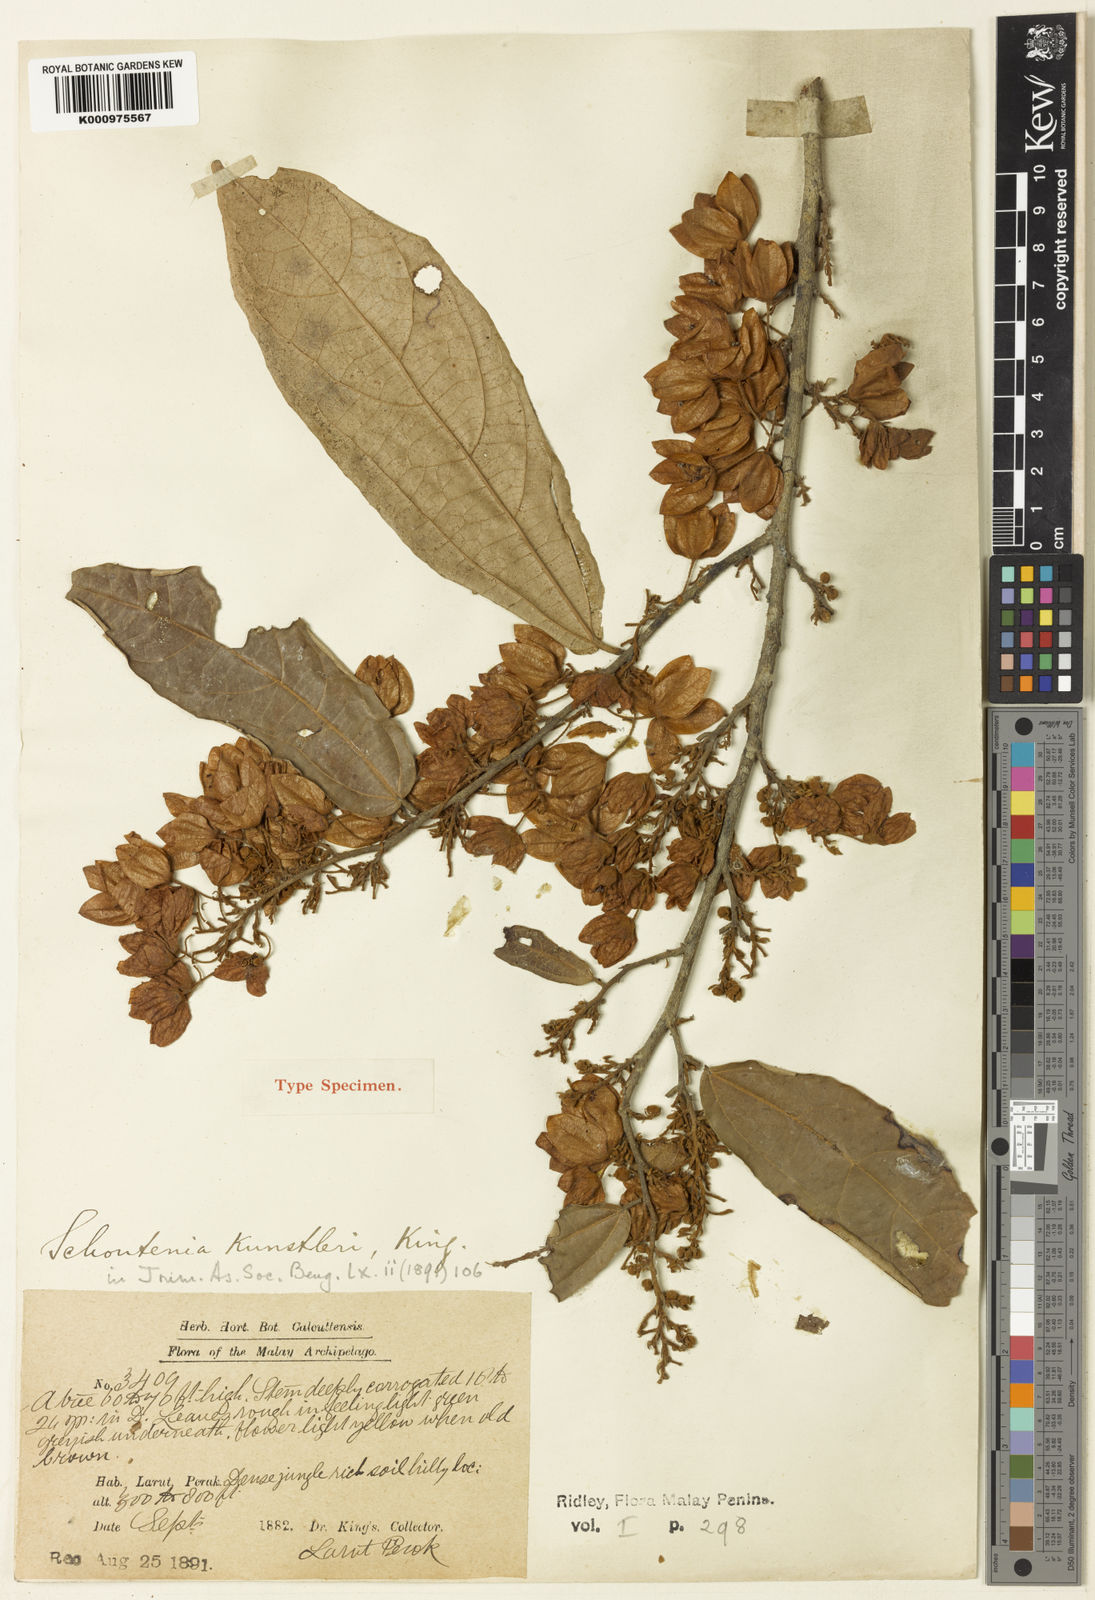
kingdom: Plantae
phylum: Tracheophyta
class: Magnoliopsida
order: Malvales
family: Malvaceae
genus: Schoutenia
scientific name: Schoutenia kunstleri
